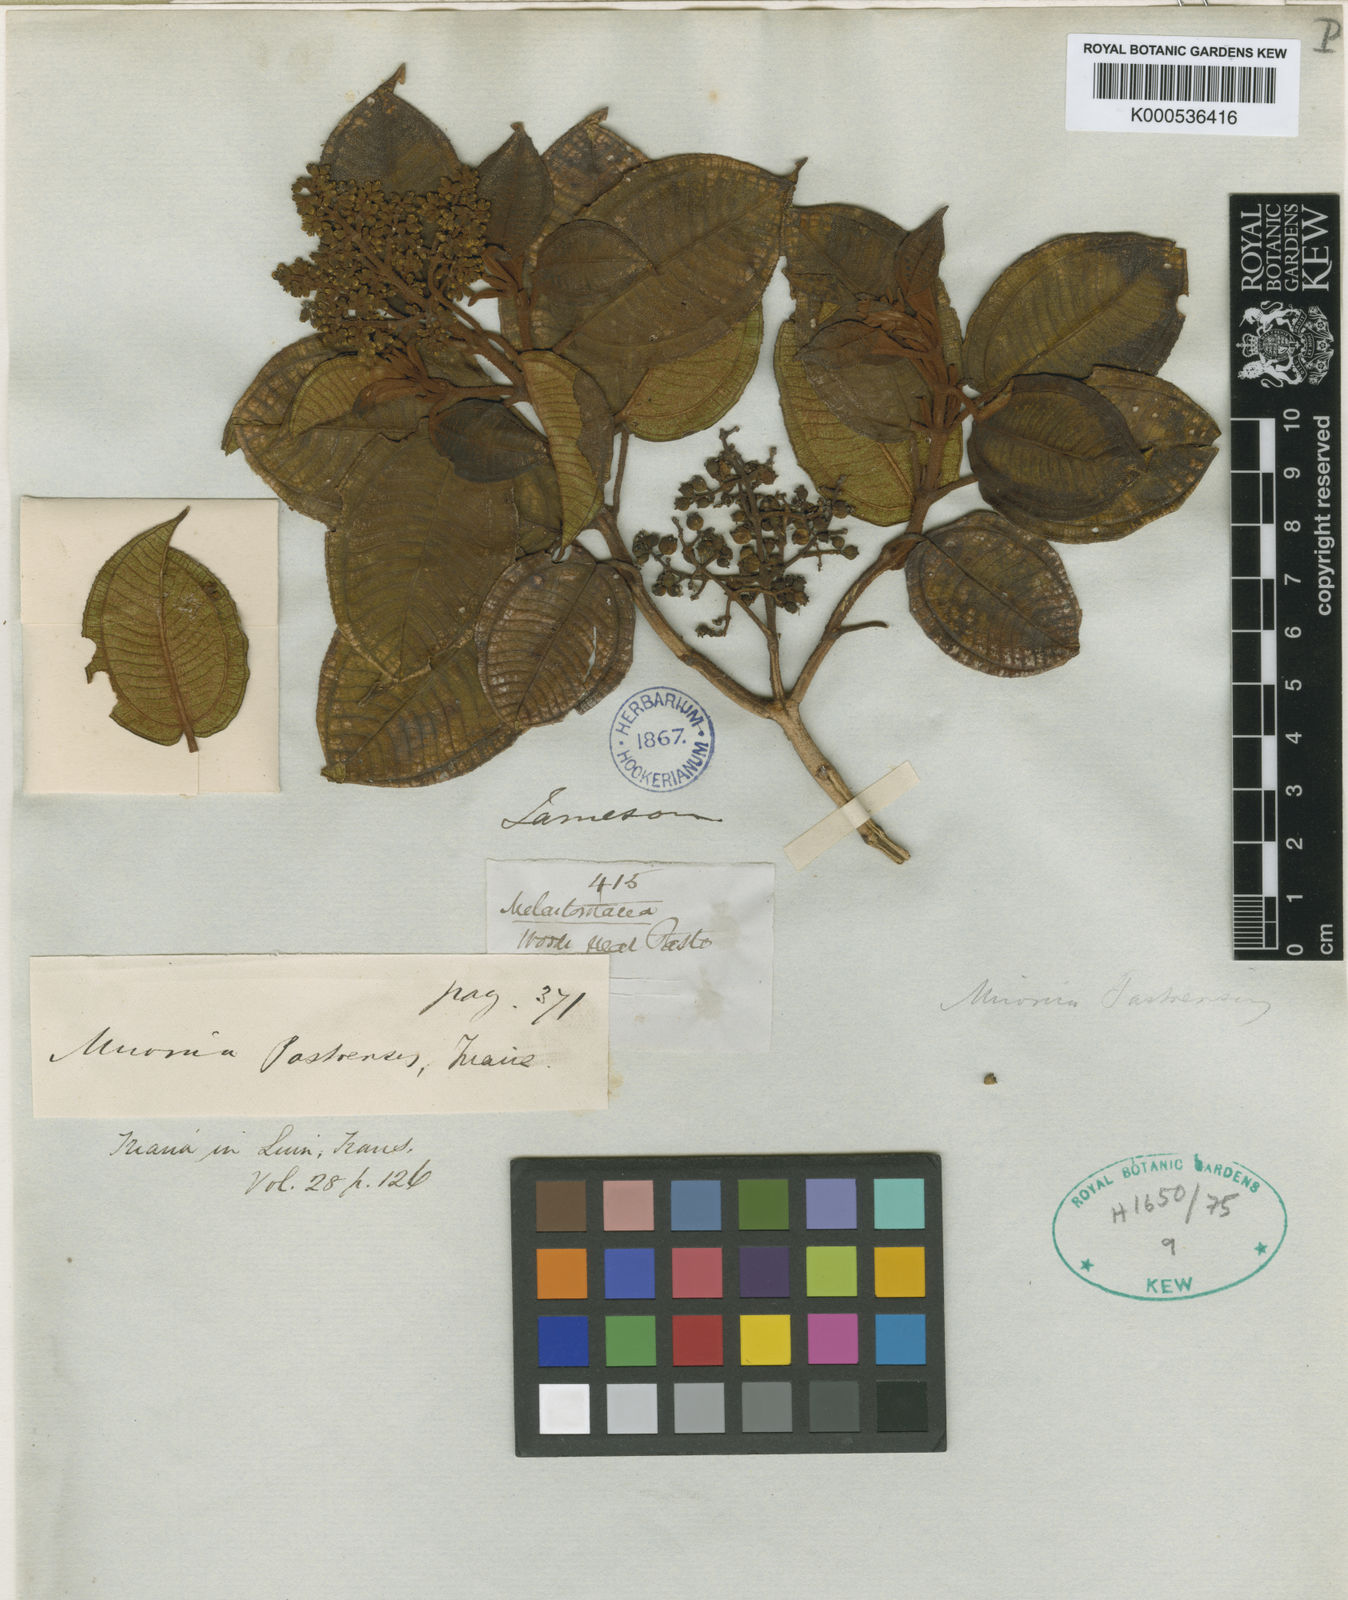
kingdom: Plantae
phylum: Tracheophyta
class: Magnoliopsida
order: Myrtales
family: Melastomataceae
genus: Miconia
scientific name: Miconia pastoensis
